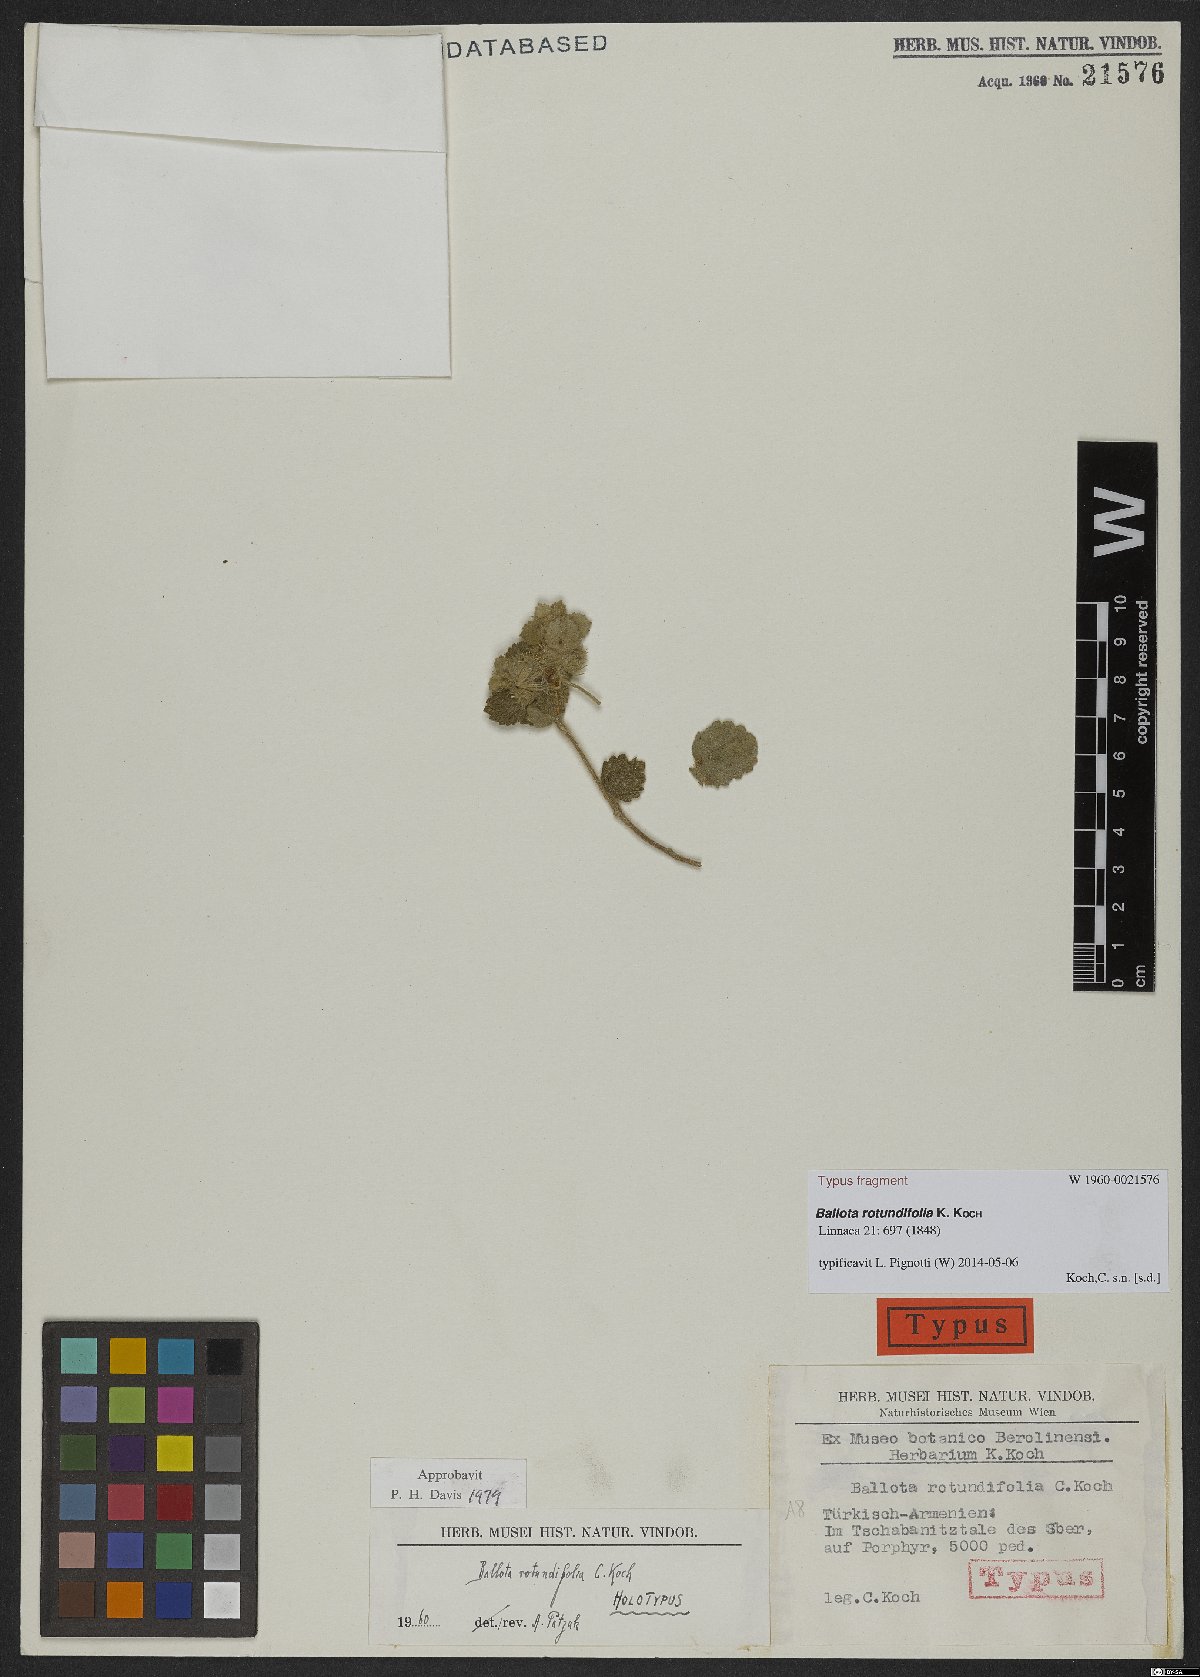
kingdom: Plantae
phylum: Tracheophyta
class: Magnoliopsida
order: Lamiales
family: Lamiaceae
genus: Pseudodictamnus
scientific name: Pseudodictamnus rotundifolius
